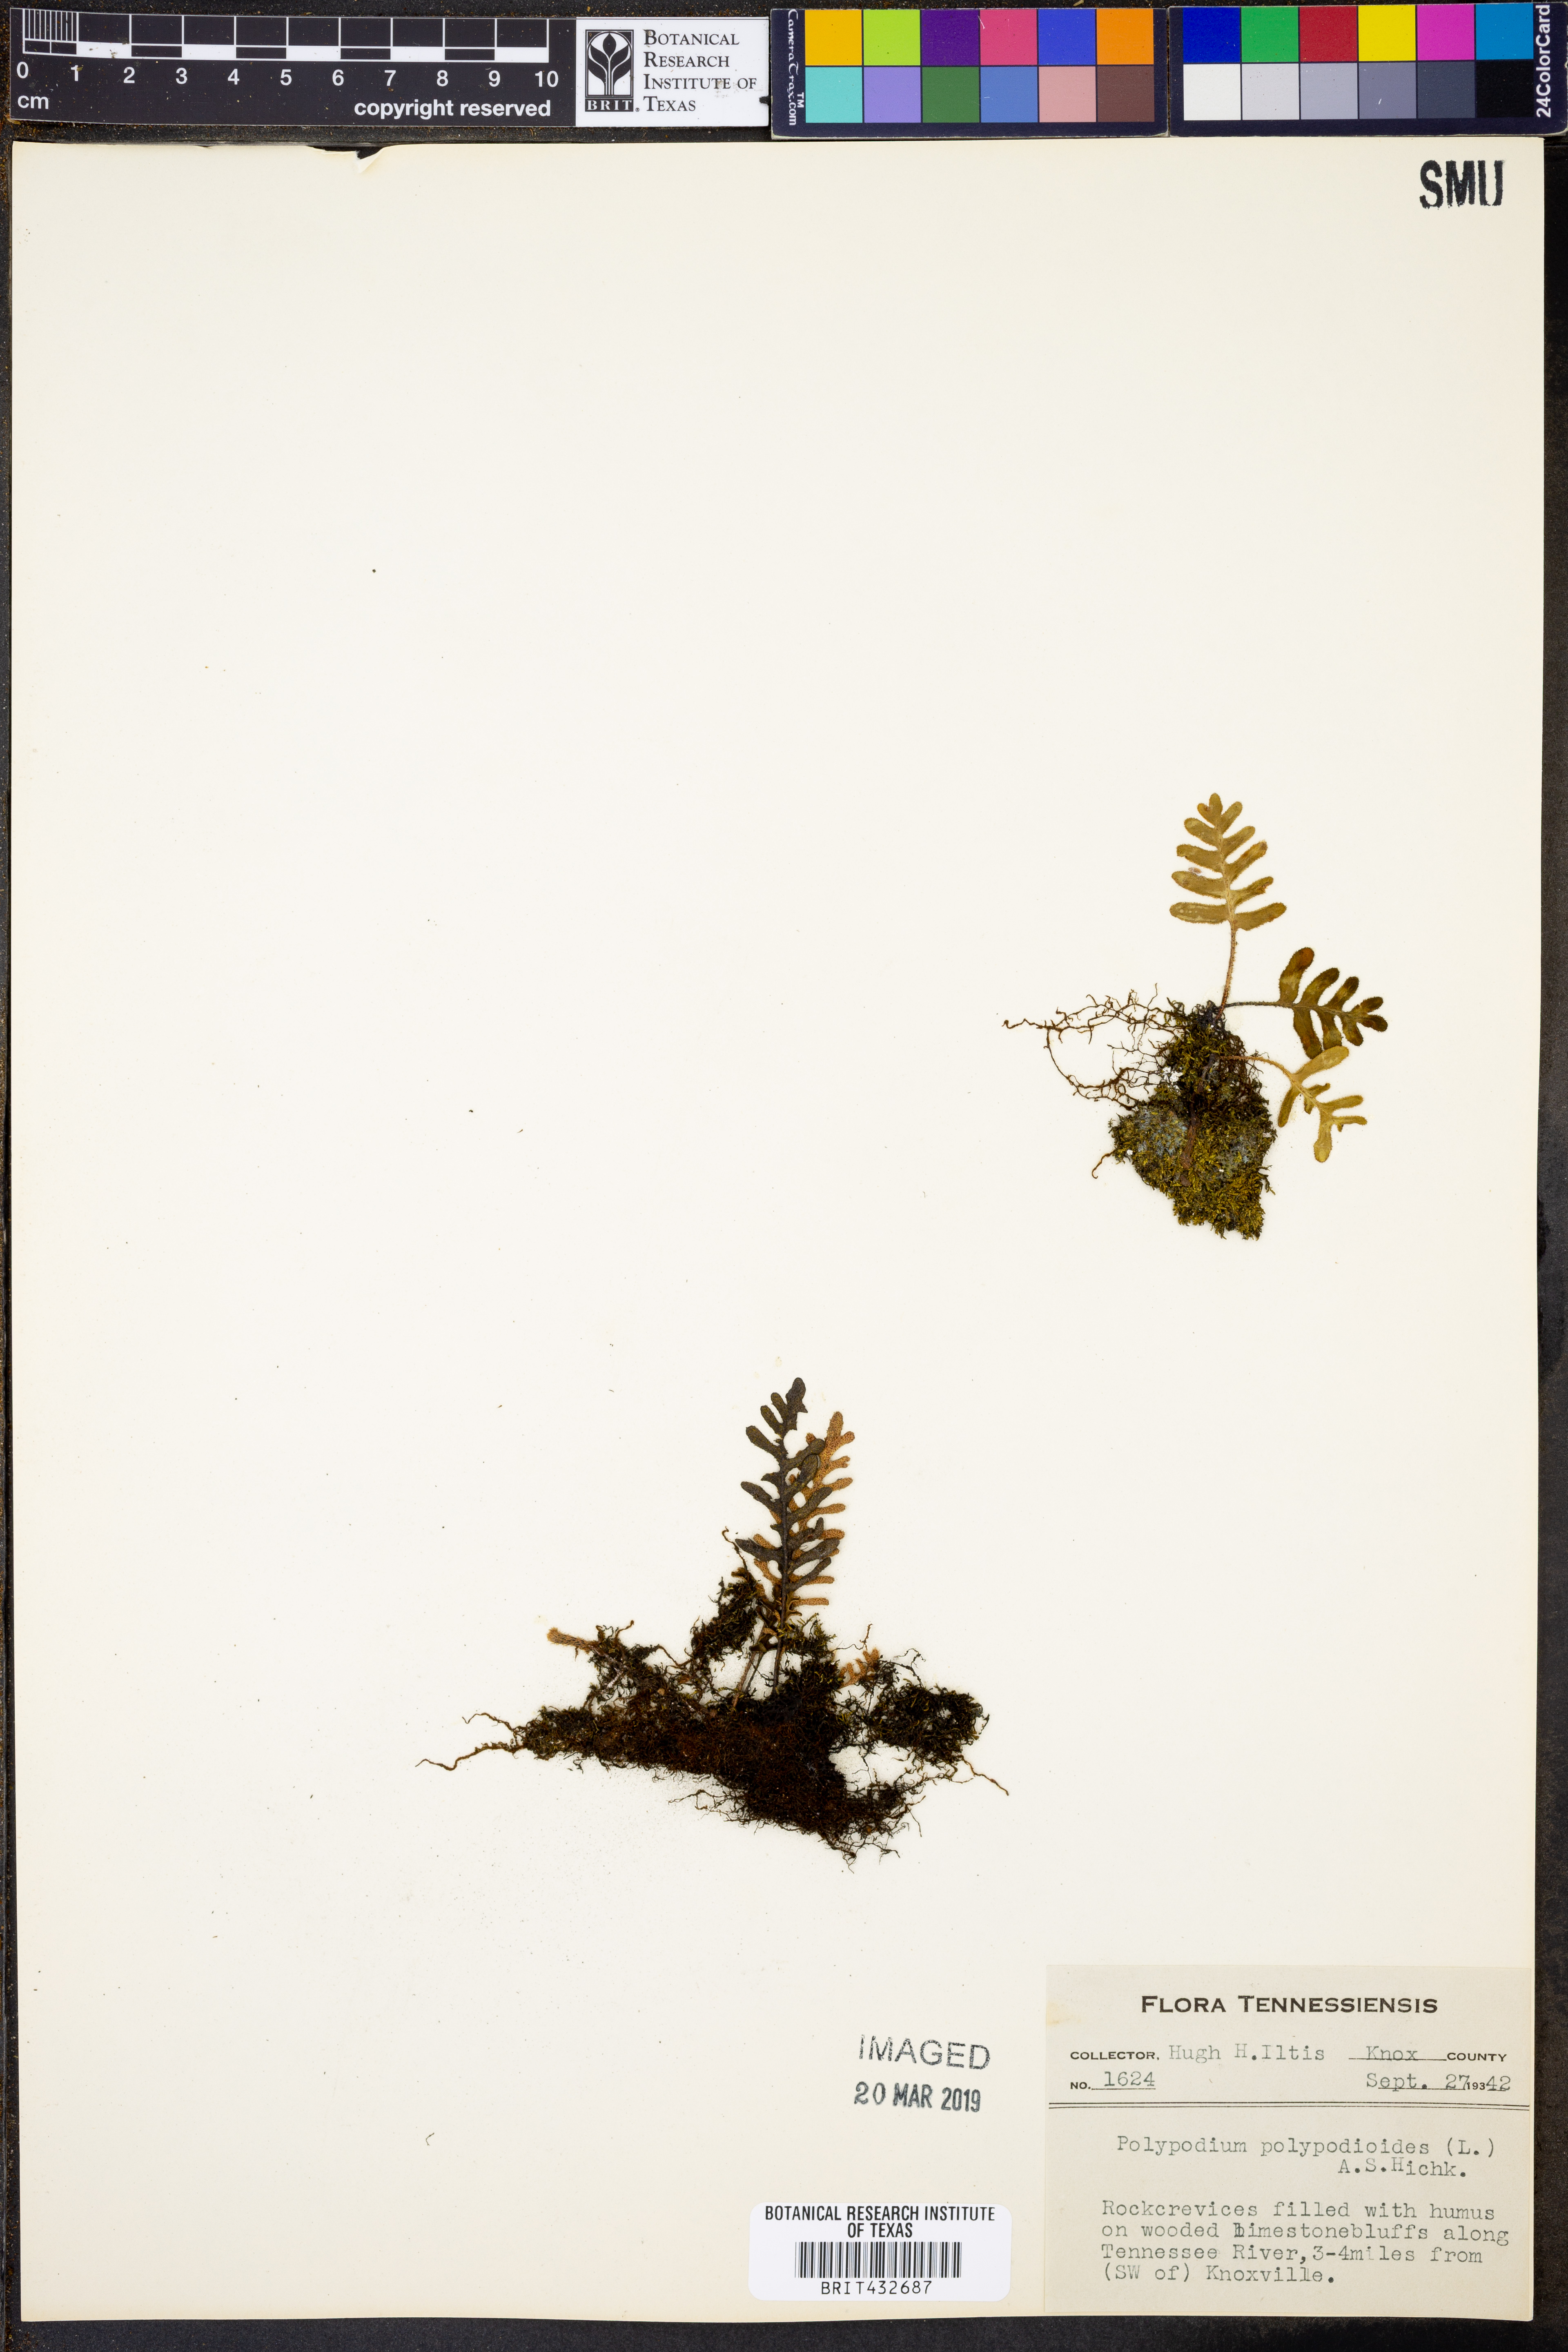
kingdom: Plantae
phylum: Tracheophyta
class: Polypodiopsida
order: Polypodiales
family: Polypodiaceae
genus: Pleopeltis
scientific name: Pleopeltis polypodioides
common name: Resurrection fern
